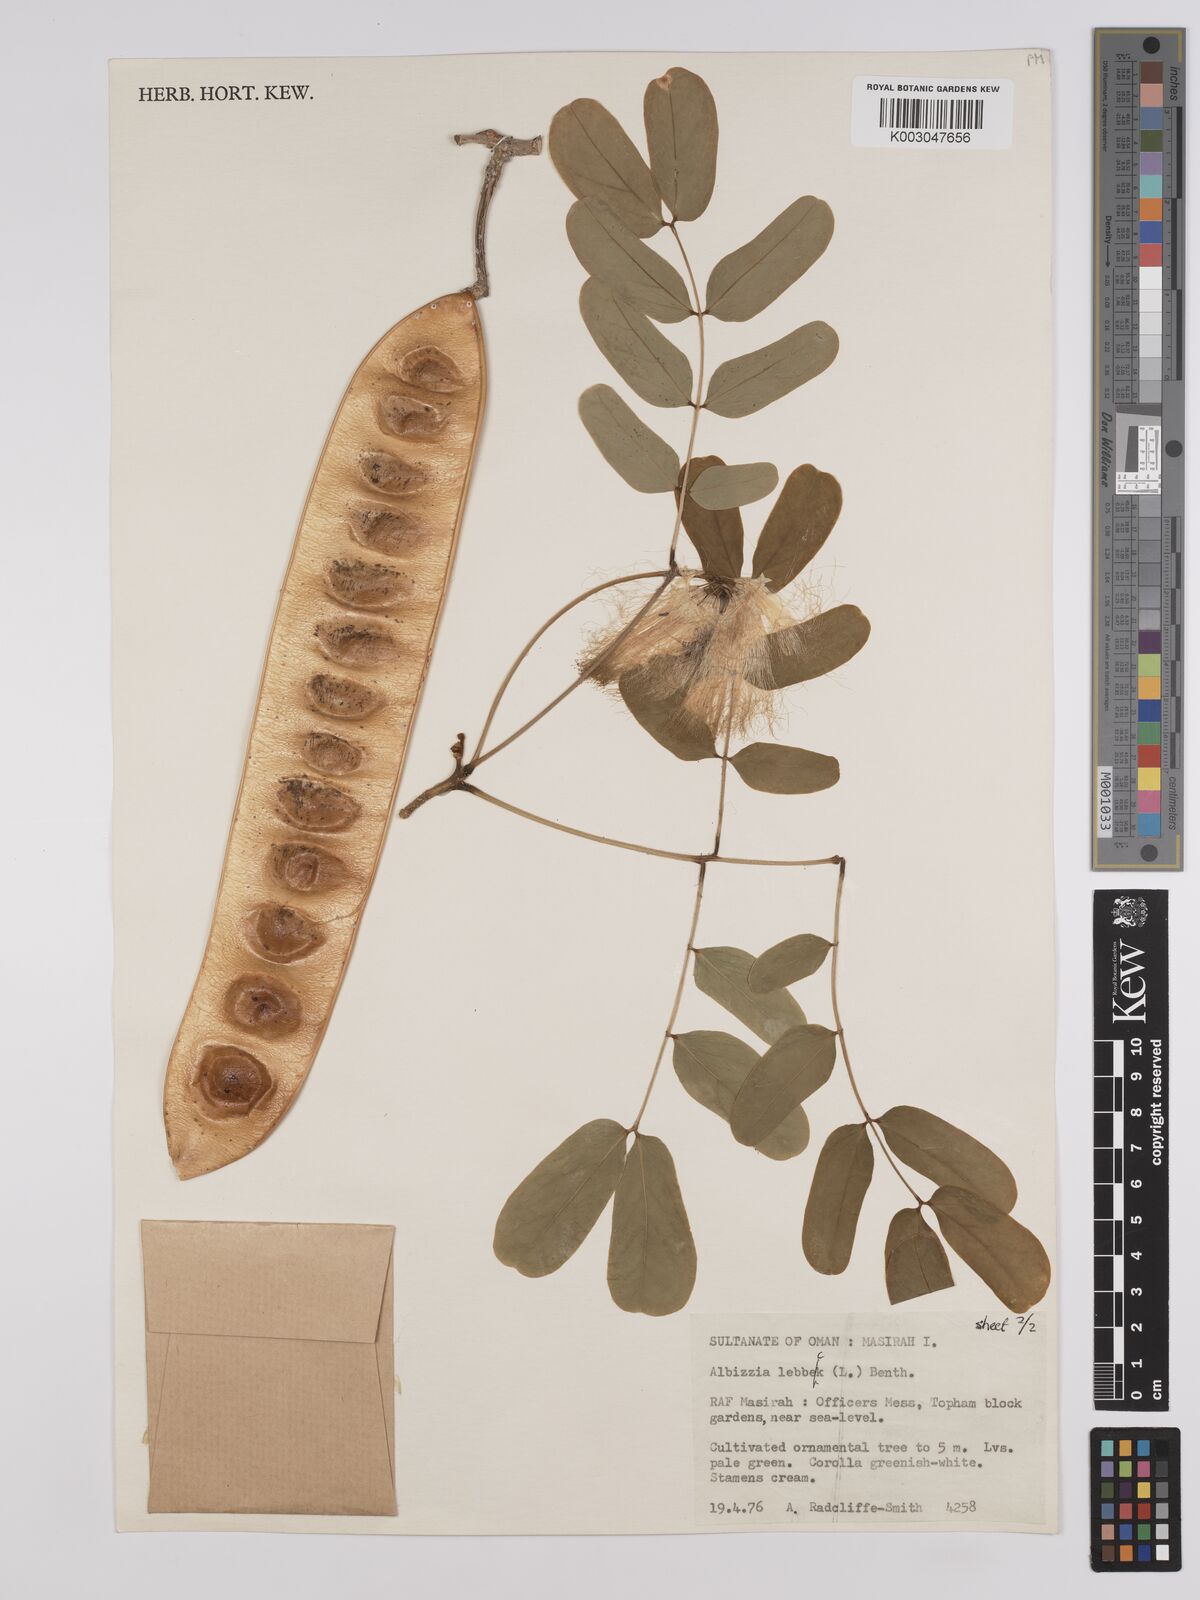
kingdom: Plantae
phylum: Tracheophyta
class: Magnoliopsida
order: Fabales
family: Fabaceae
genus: Albizia
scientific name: Albizia lebbeck
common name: Woman's tongue
